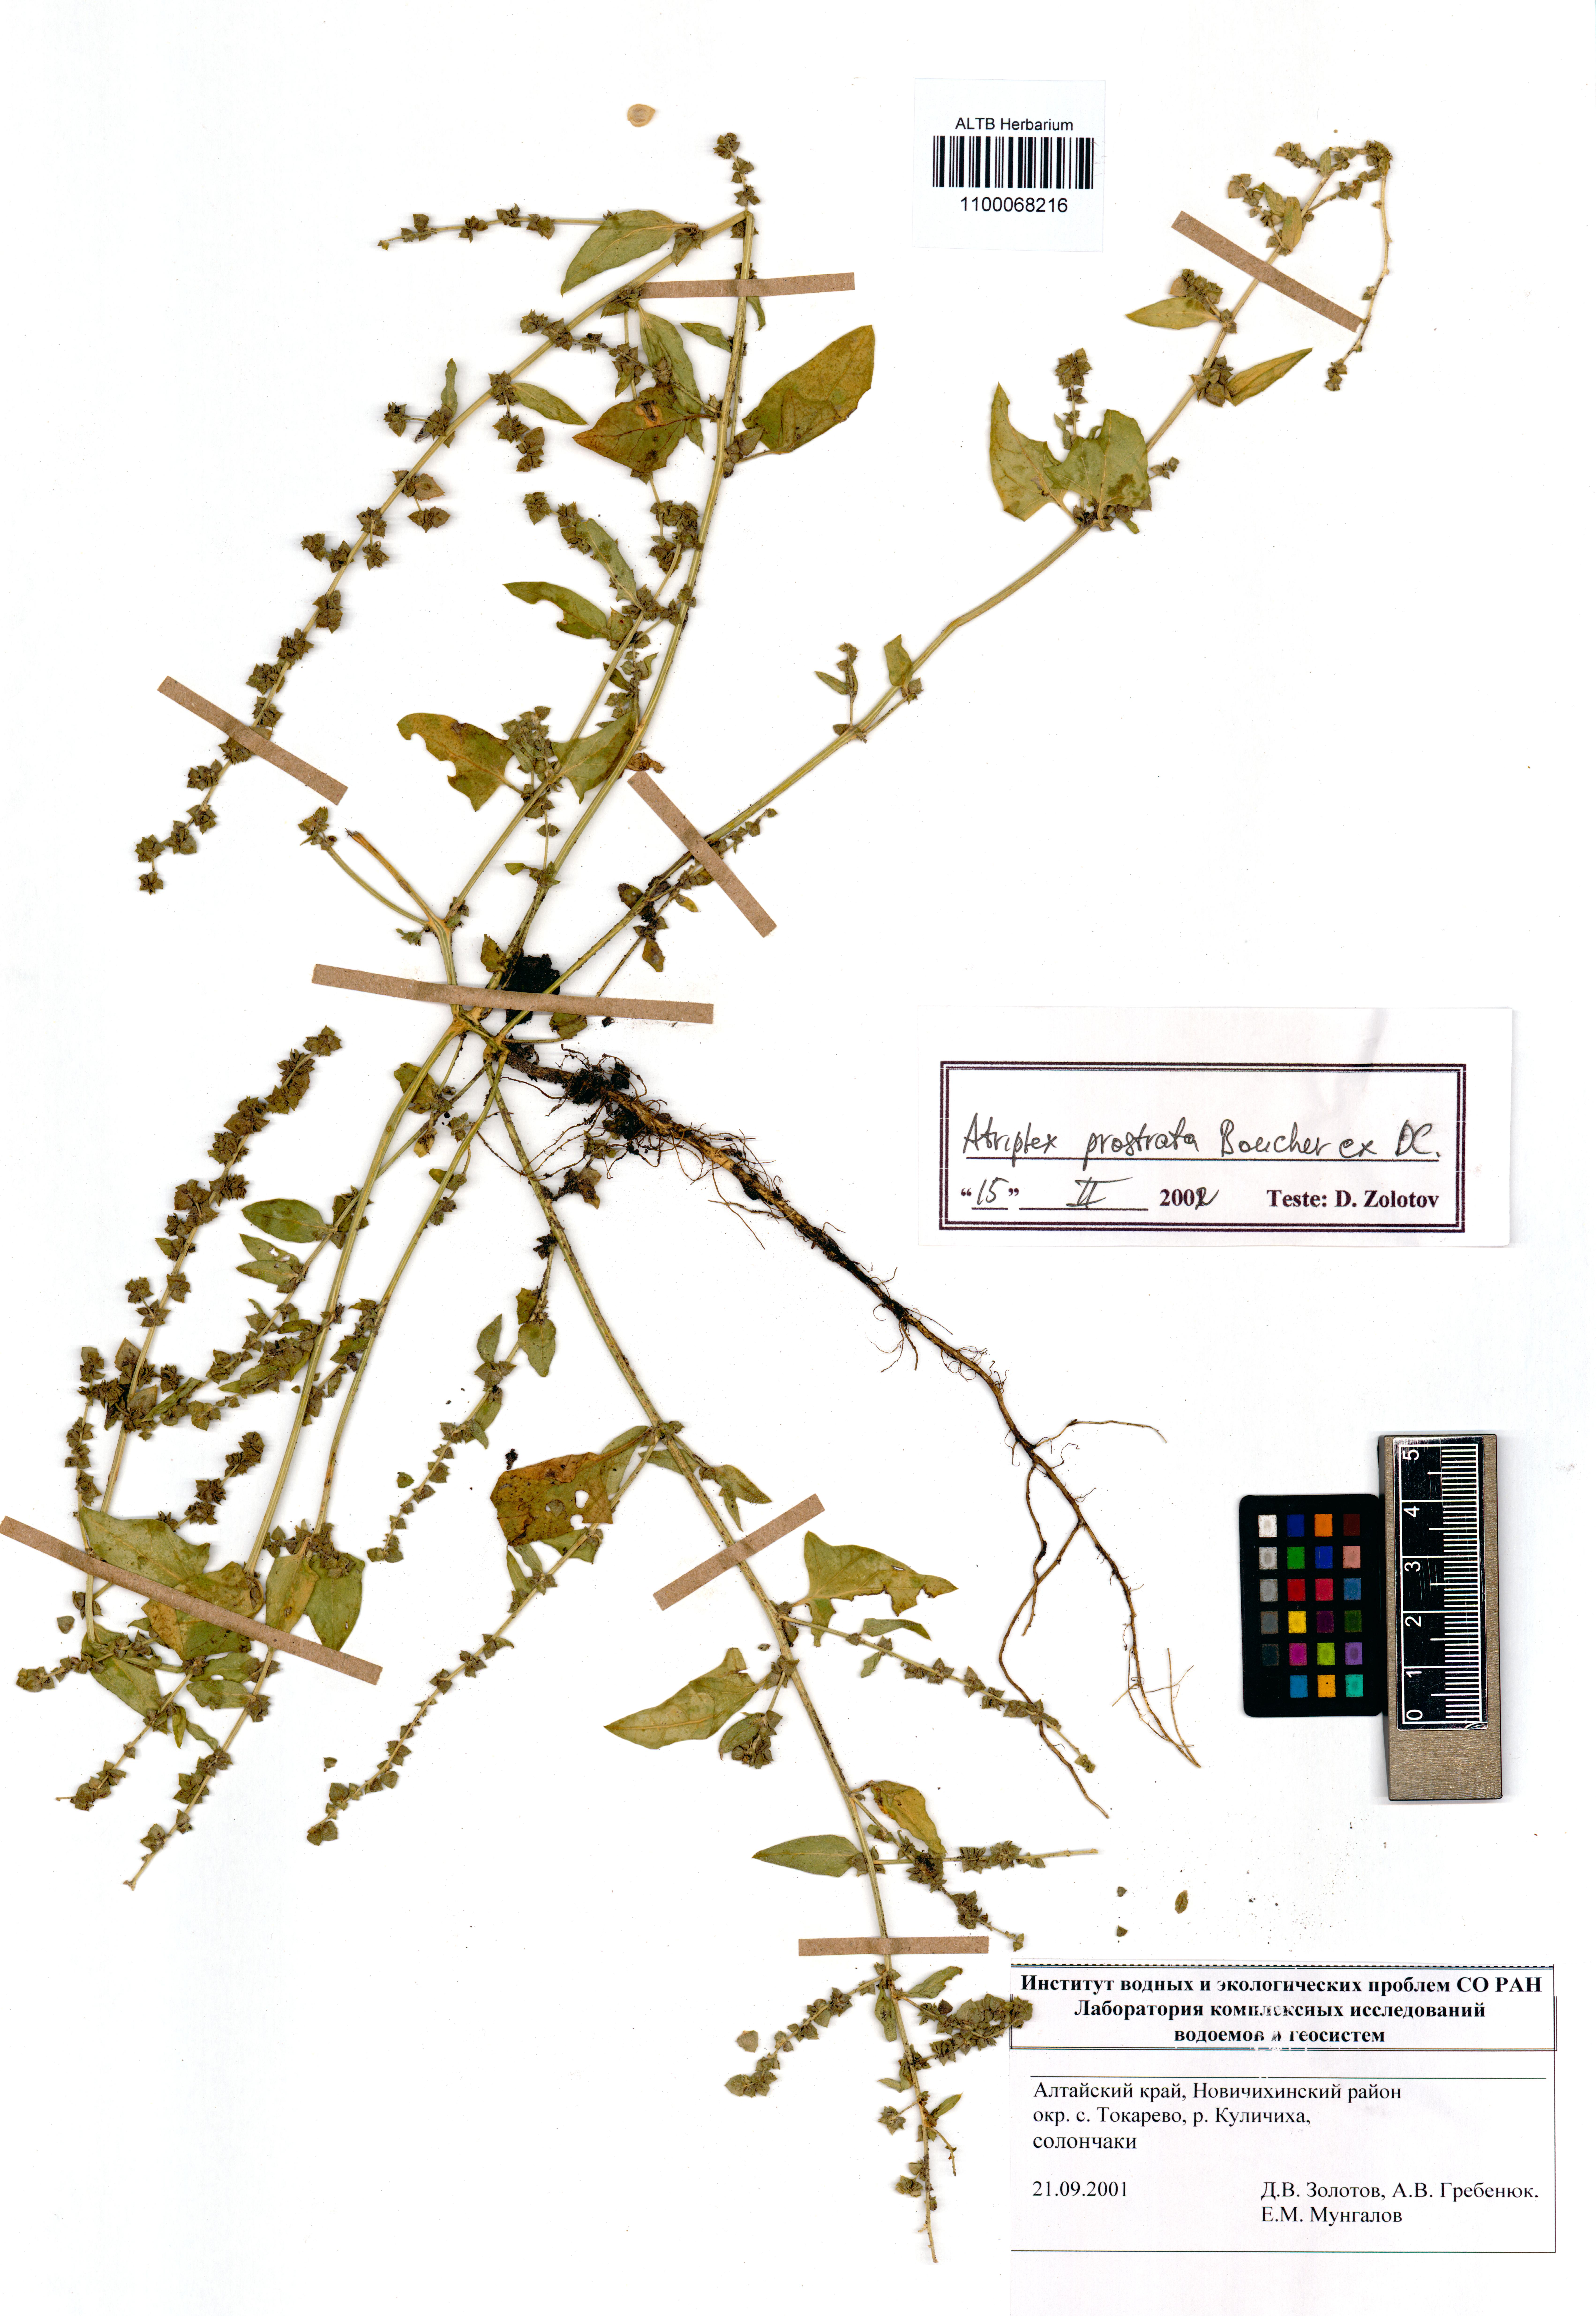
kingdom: Plantae
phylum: Tracheophyta
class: Magnoliopsida
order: Caryophyllales
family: Amaranthaceae
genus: Atriplex
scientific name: Atriplex prostrata
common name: Spear-leaved orache
